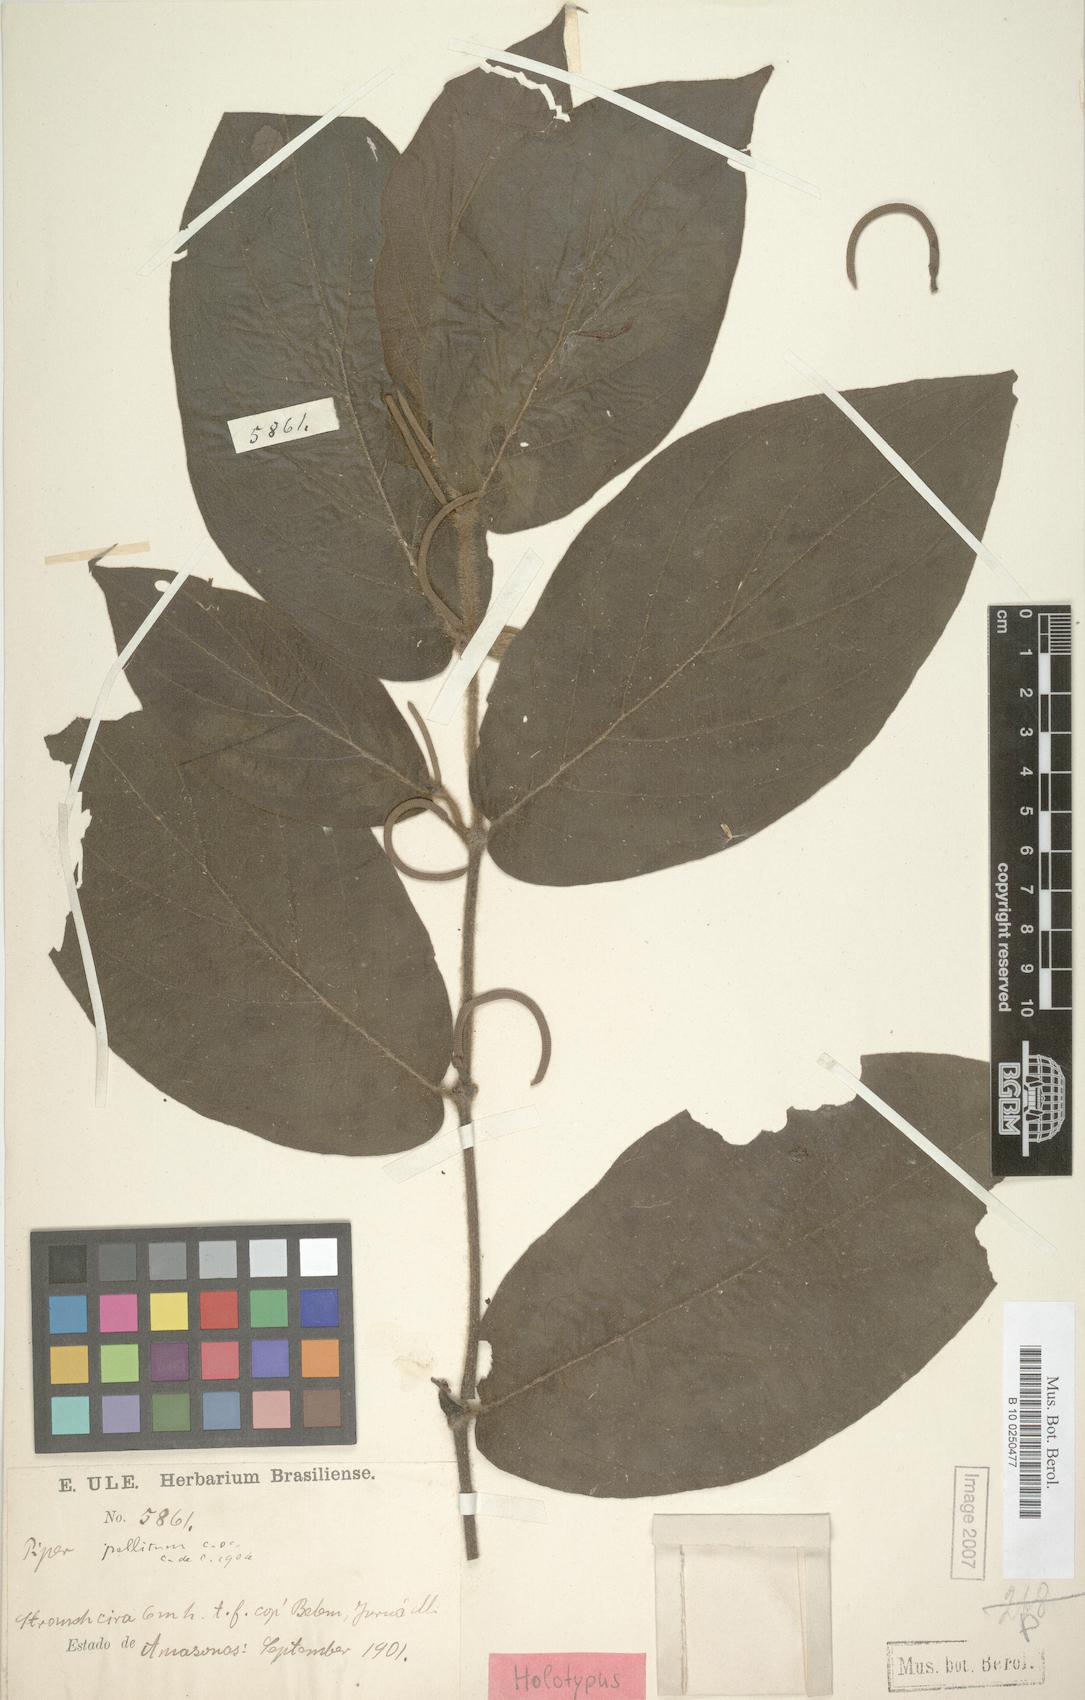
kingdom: Plantae
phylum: Tracheophyta
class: Magnoliopsida
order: Piperales
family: Piperaceae
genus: Piper
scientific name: Piper pellitum
